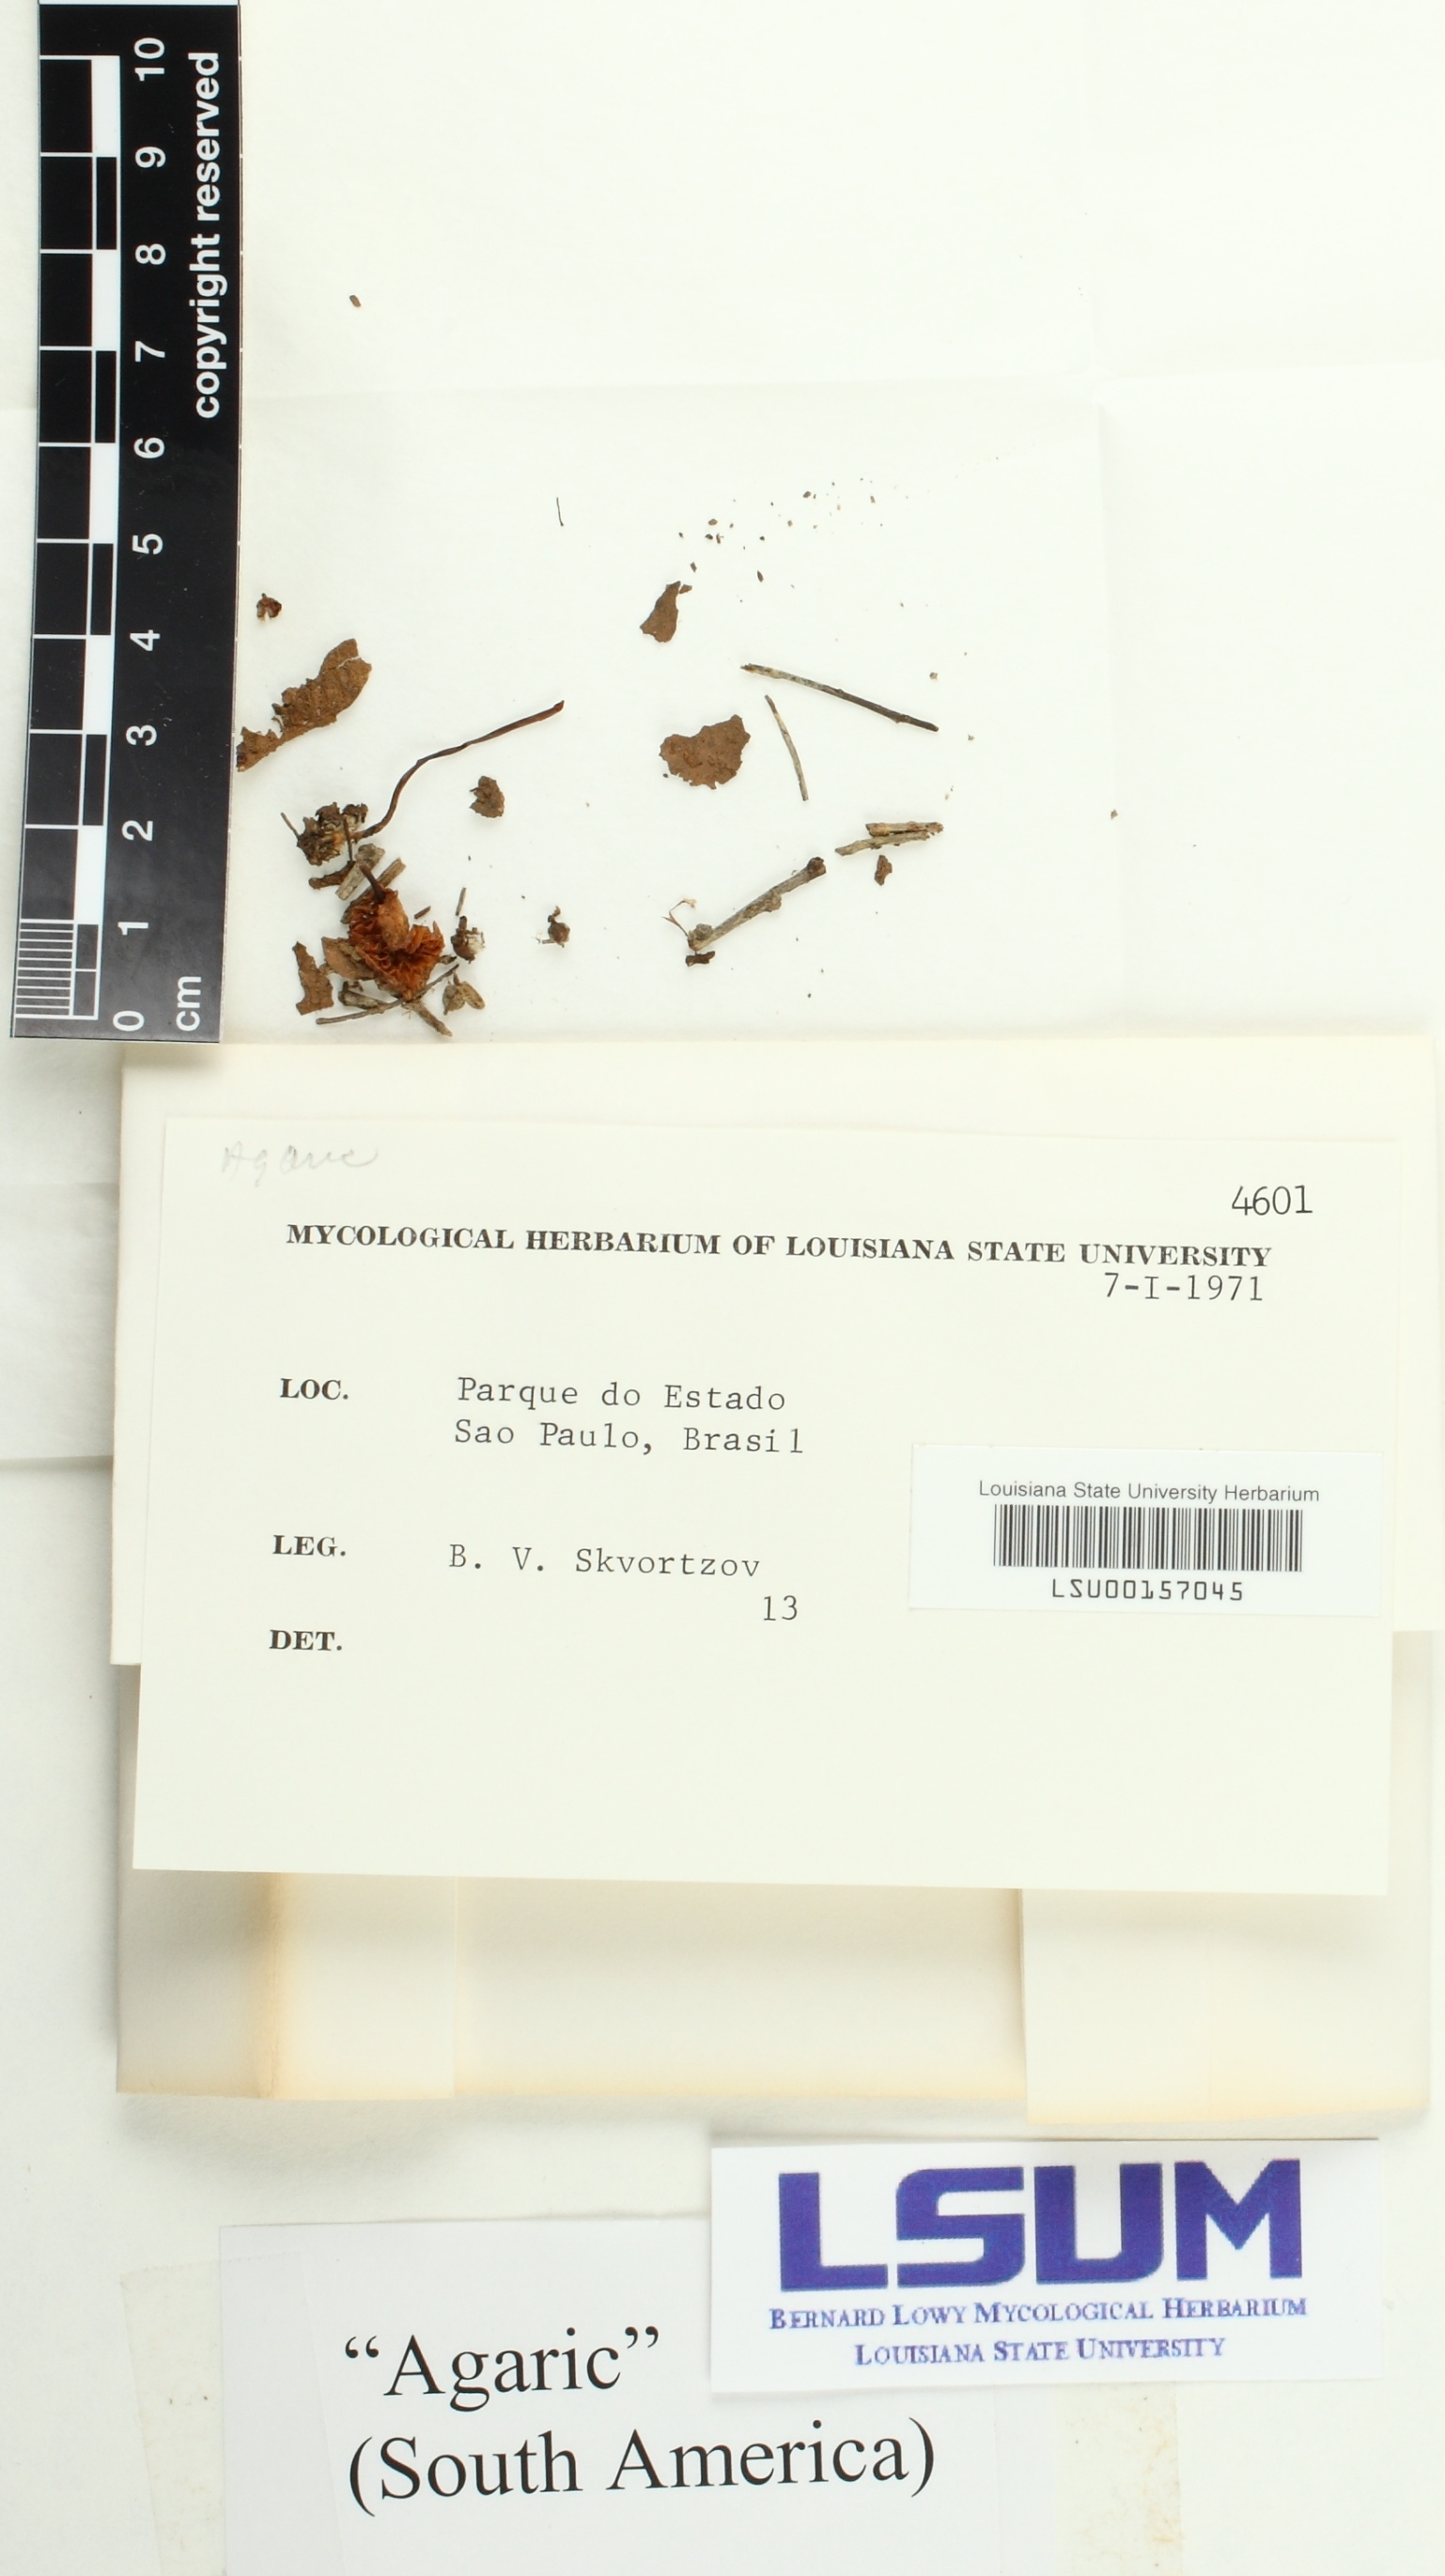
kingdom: Fungi
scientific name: Fungi
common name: Fungi
